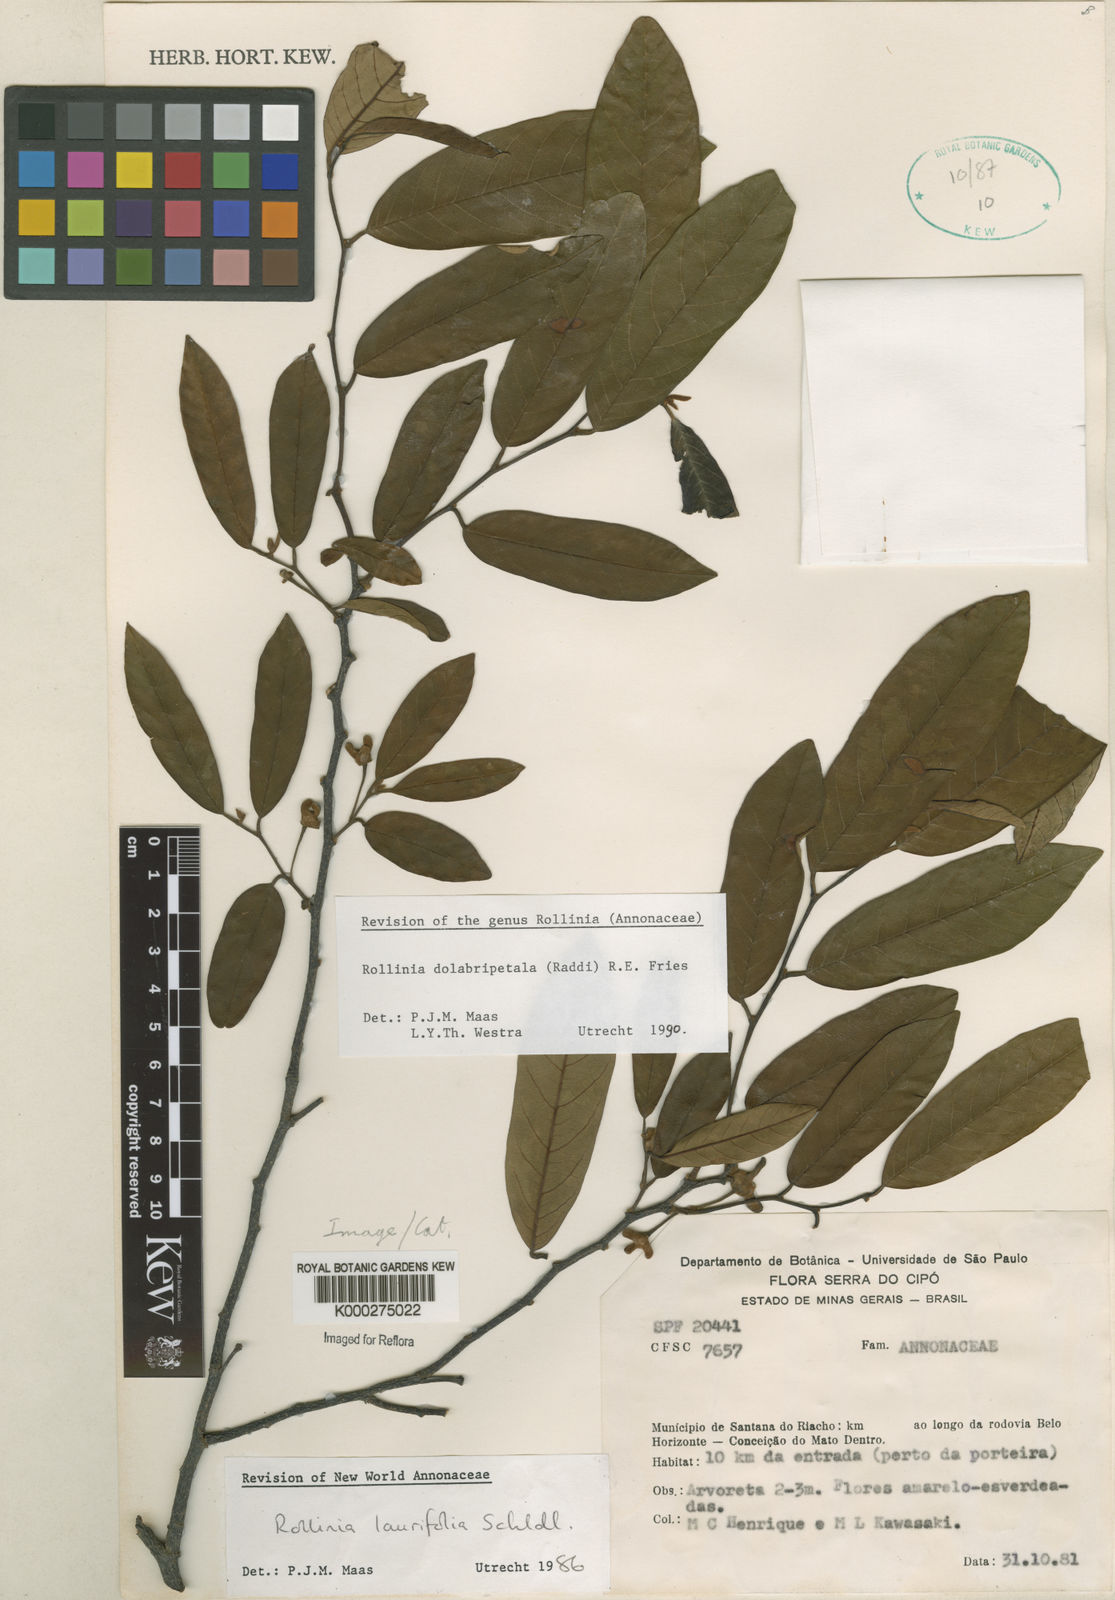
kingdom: Plantae
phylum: Tracheophyta
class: Magnoliopsida
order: Magnoliales
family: Annonaceae
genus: Annona
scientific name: Annona
